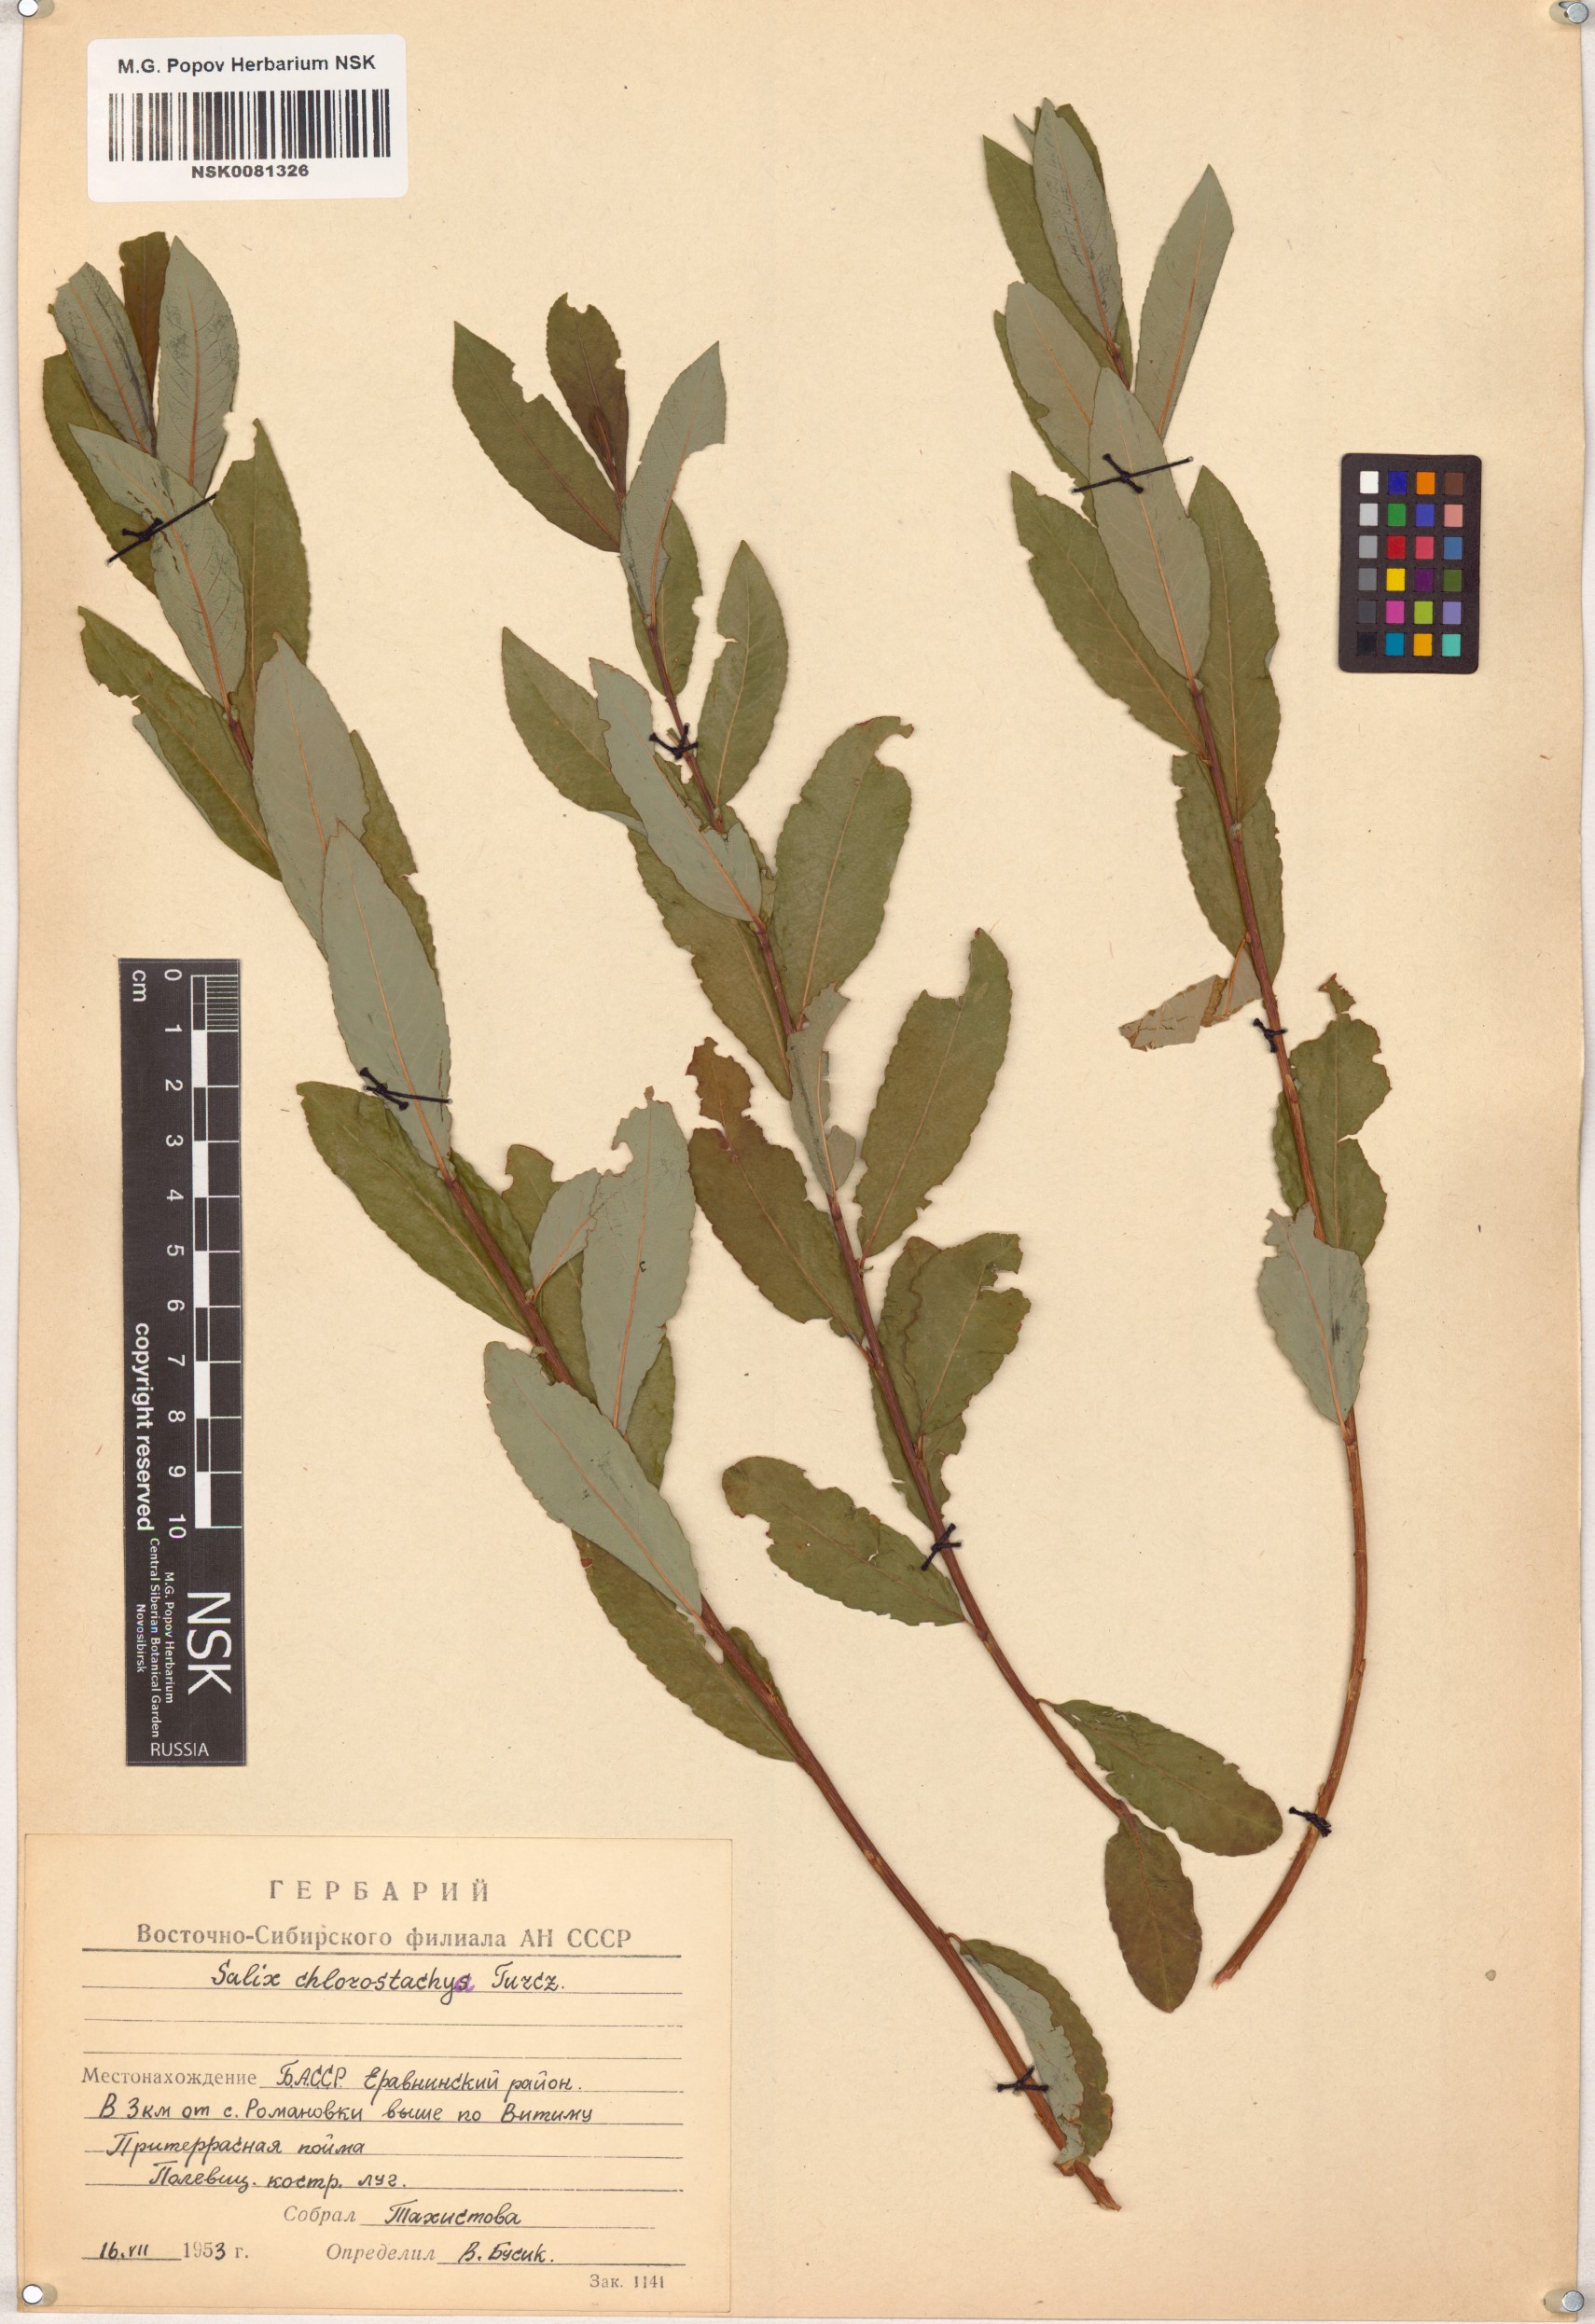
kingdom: Plantae
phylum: Tracheophyta
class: Magnoliopsida
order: Malpighiales
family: Salicaceae
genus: Salix
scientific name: Salix rhamnifolia
